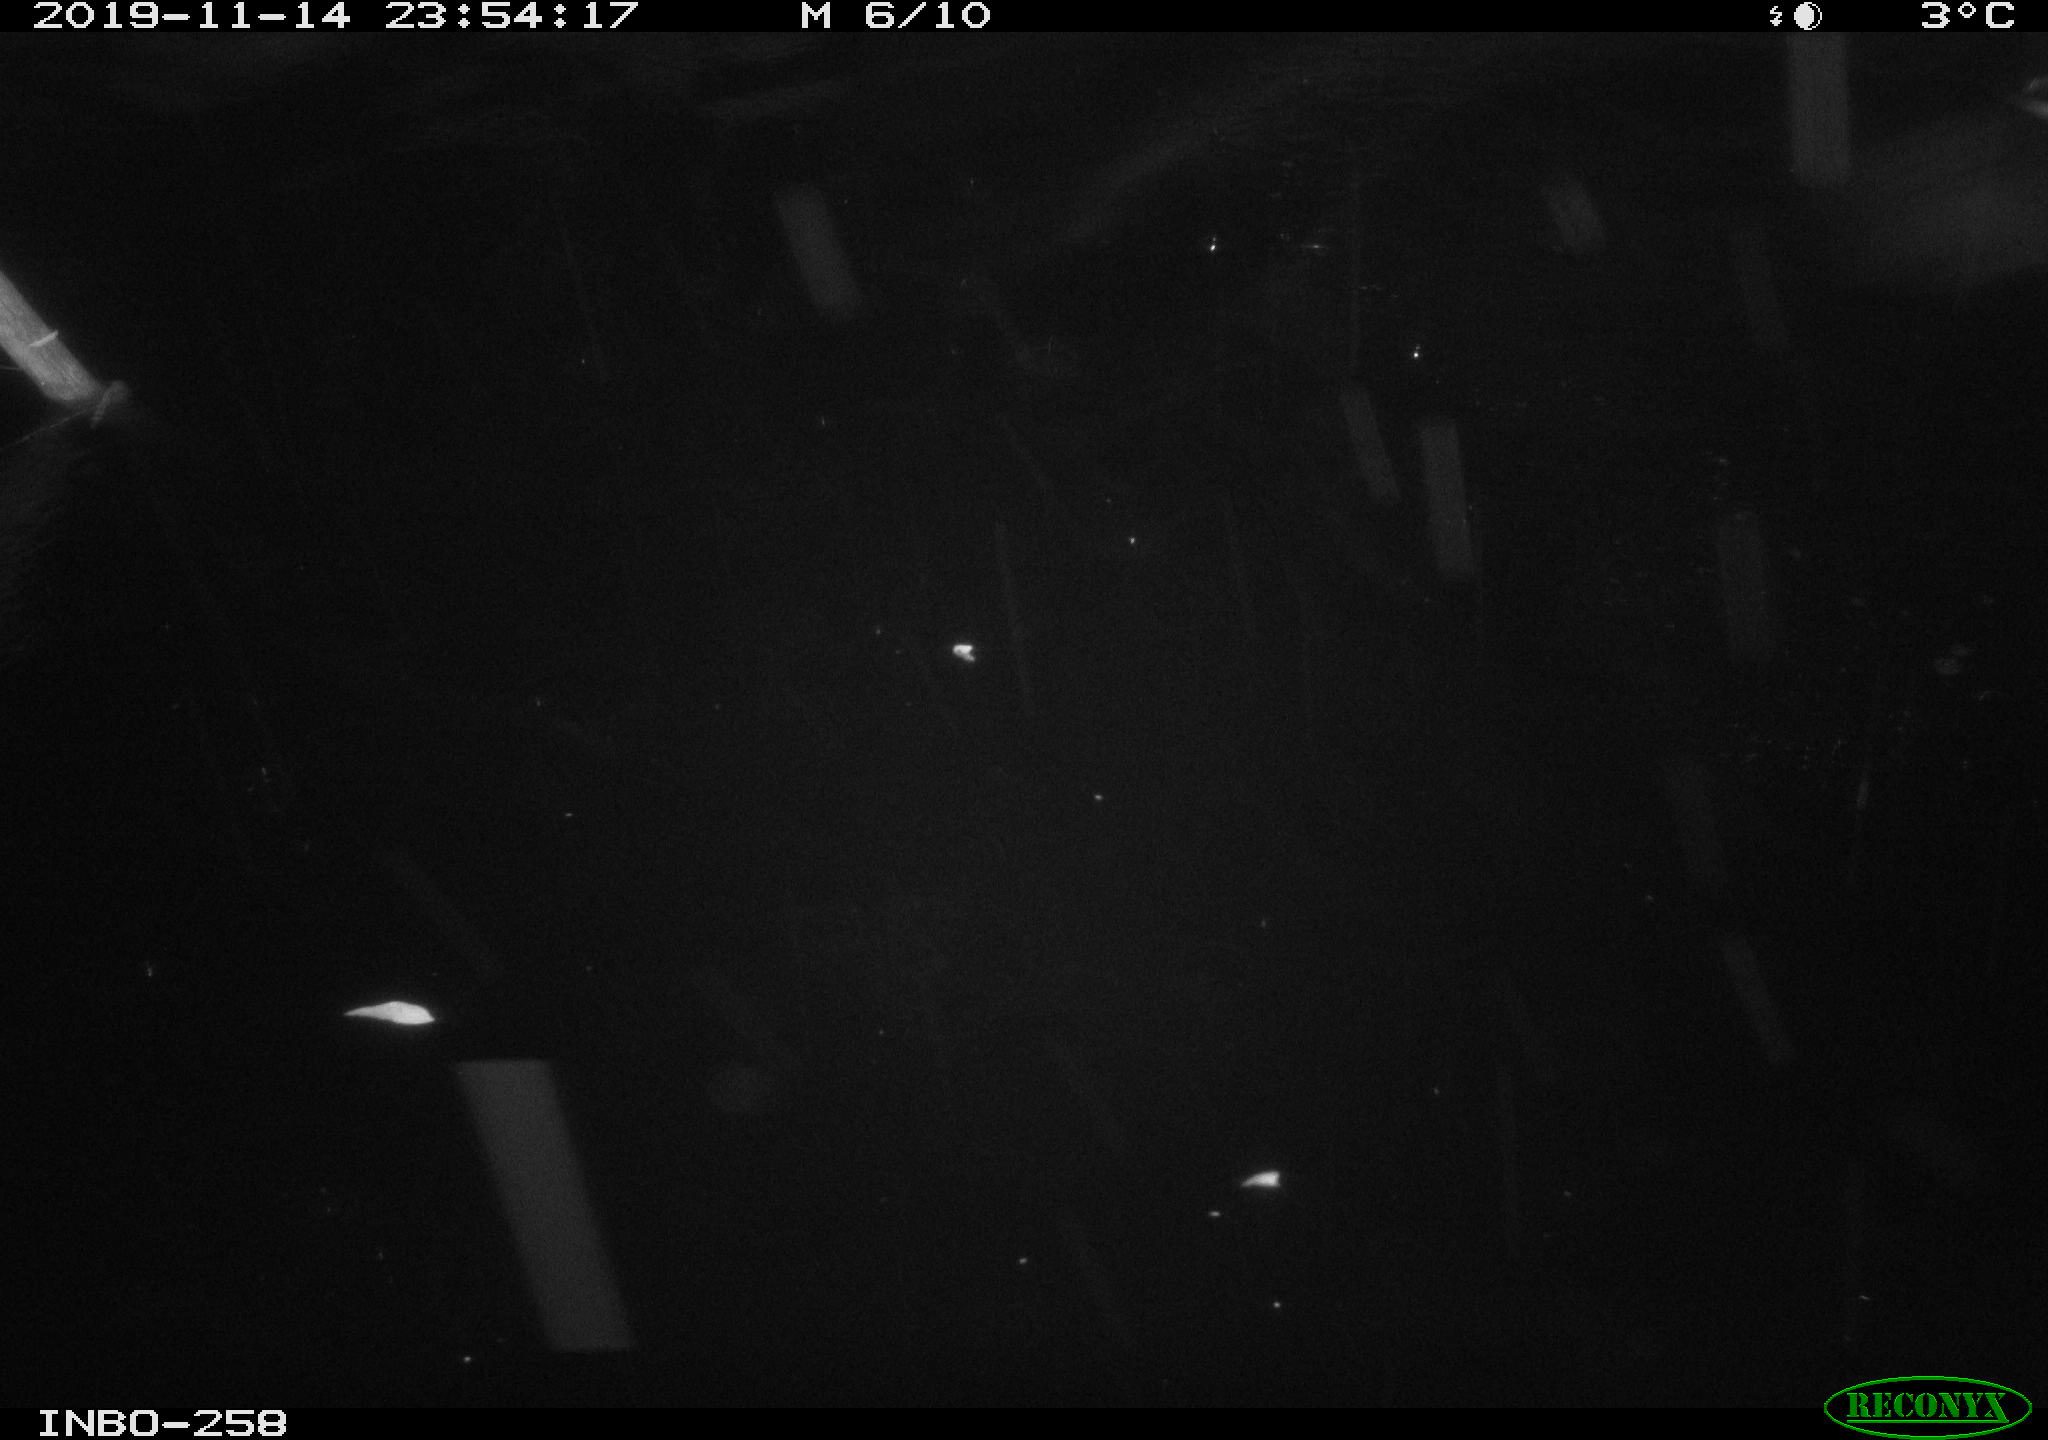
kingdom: Animalia
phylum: Chordata
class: Aves
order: Anseriformes
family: Anatidae
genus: Anas
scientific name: Anas platyrhynchos
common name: Mallard
